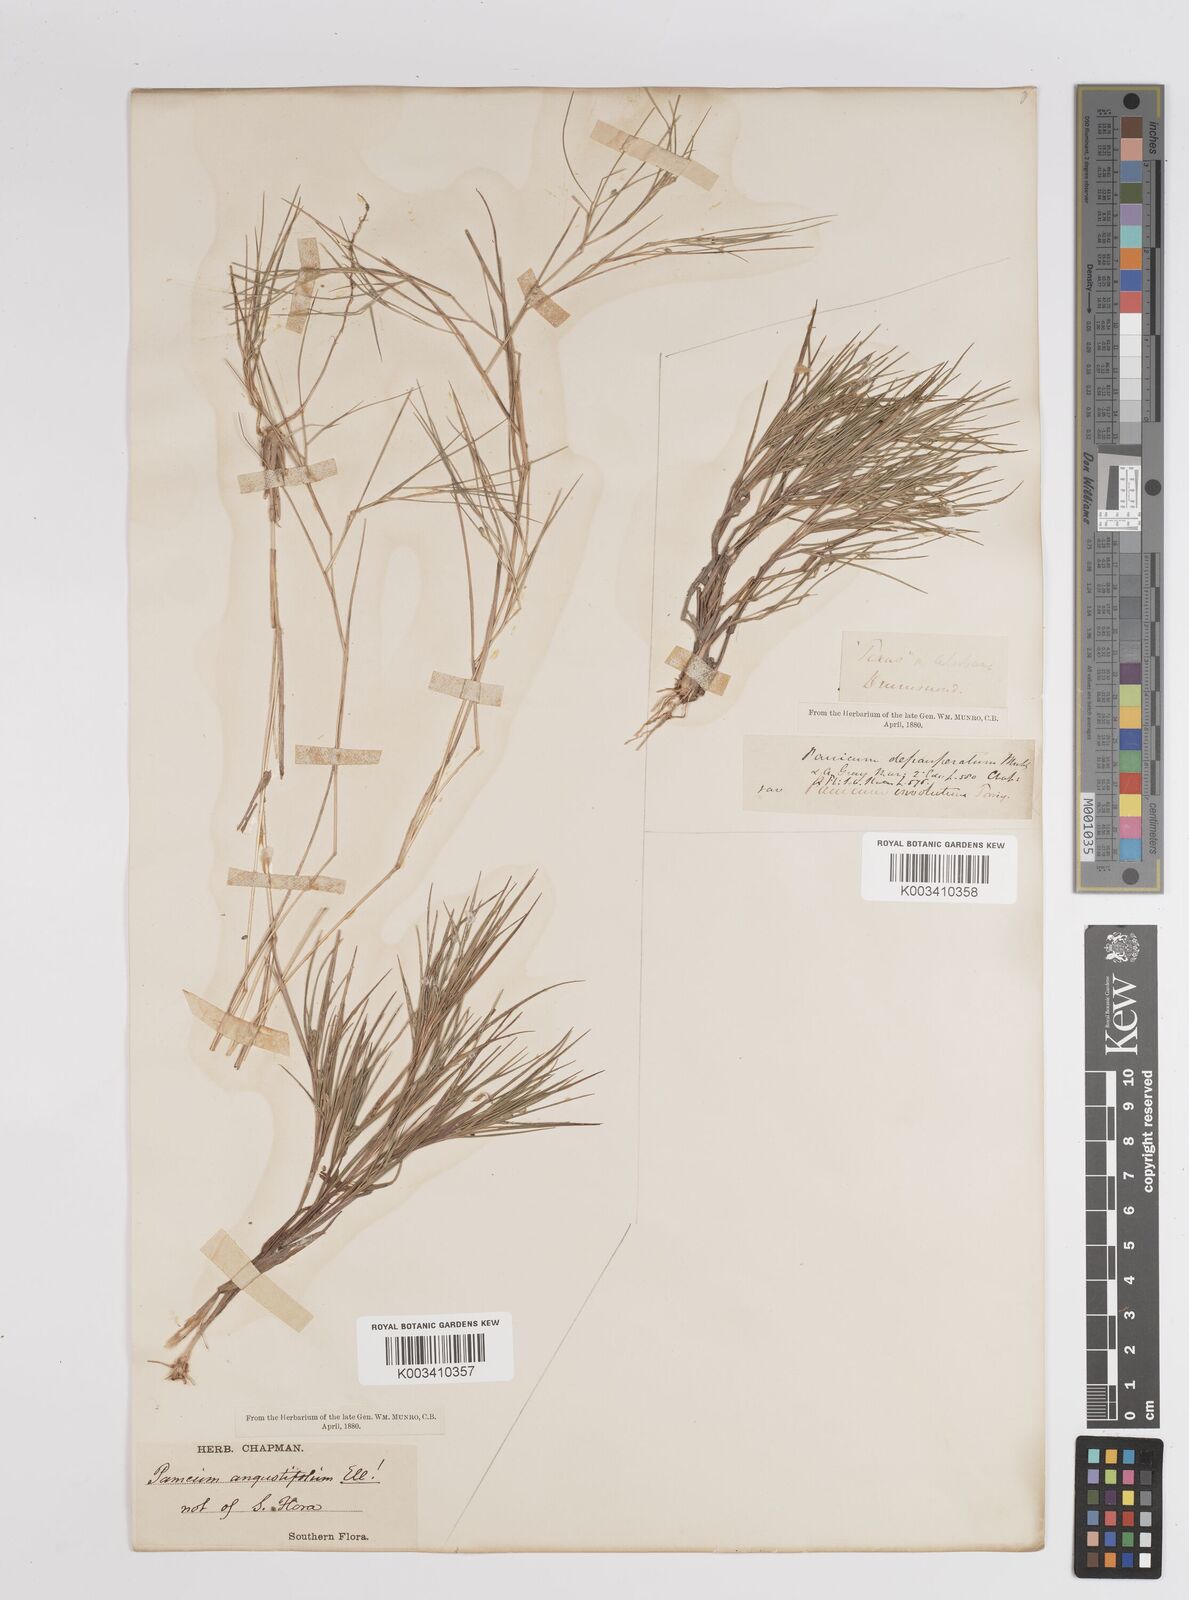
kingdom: Plantae
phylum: Tracheophyta
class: Liliopsida
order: Poales
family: Poaceae
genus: Dichanthelium
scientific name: Dichanthelium angustifolium
